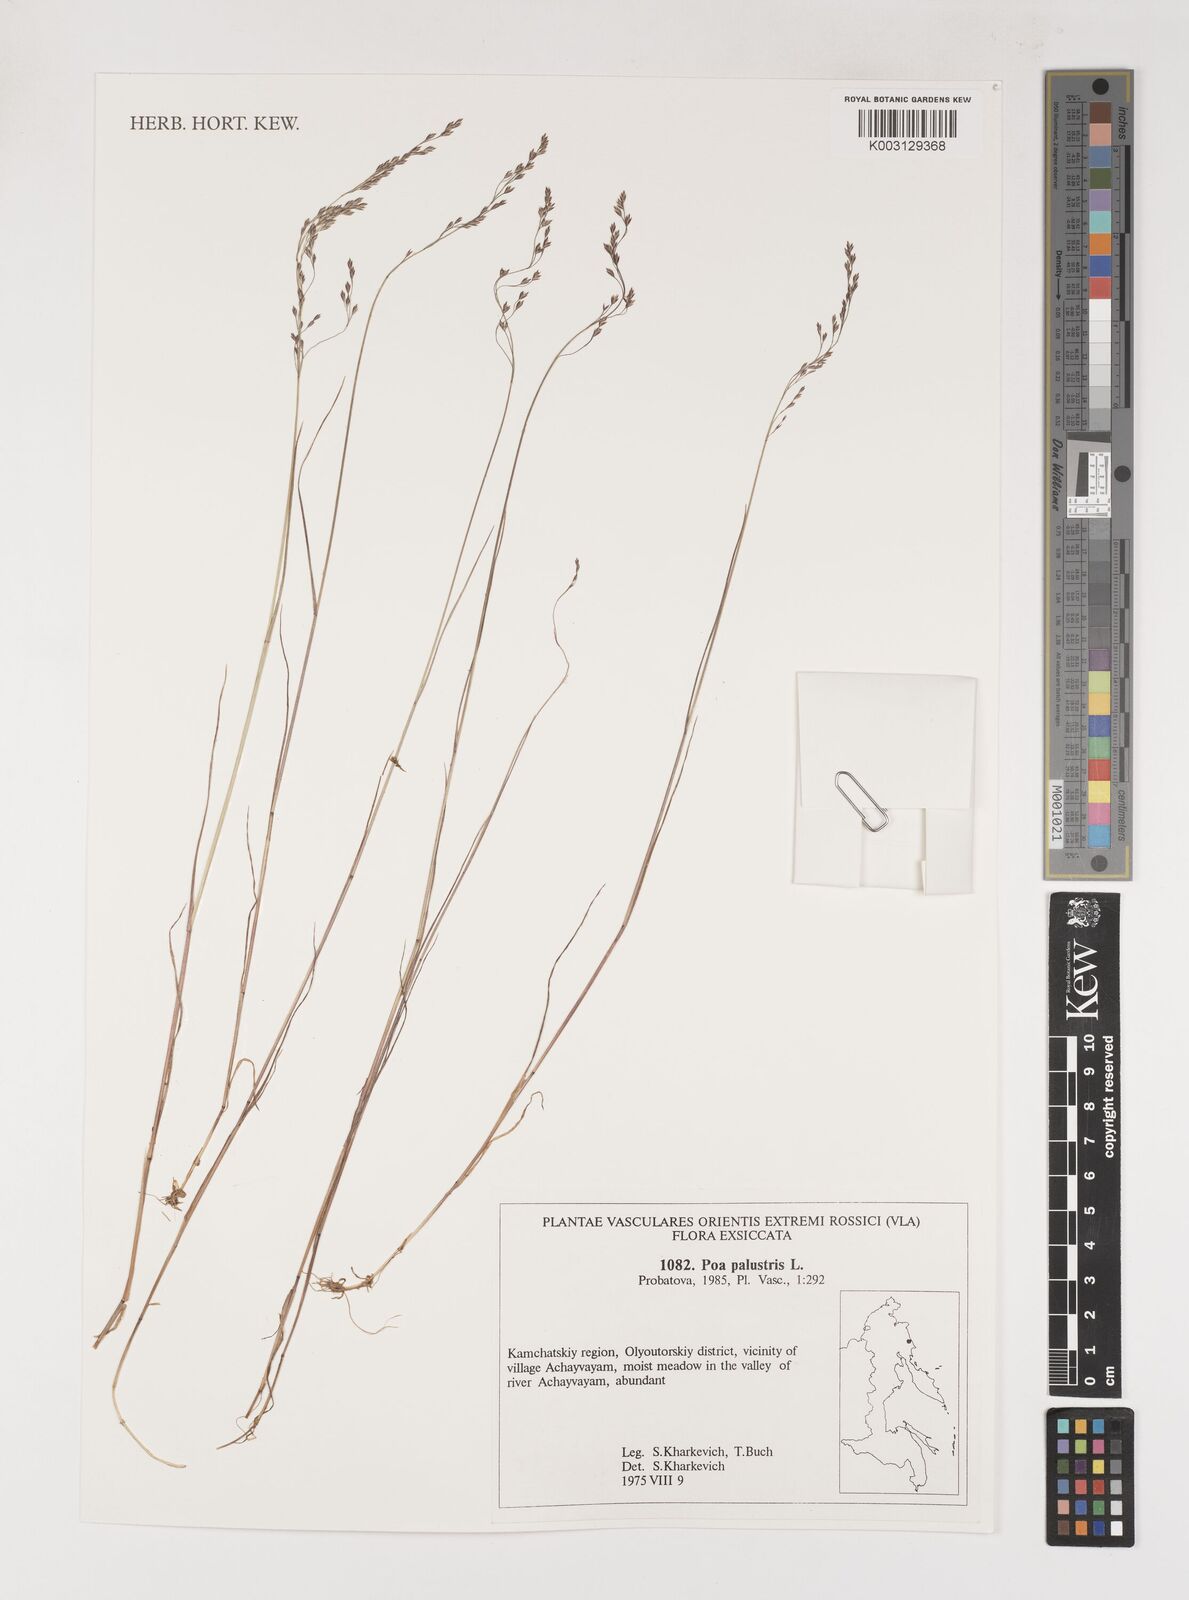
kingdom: Plantae
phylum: Tracheophyta
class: Liliopsida
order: Poales
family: Poaceae
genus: Poa
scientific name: Poa palustris
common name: Swamp meadow-grass
